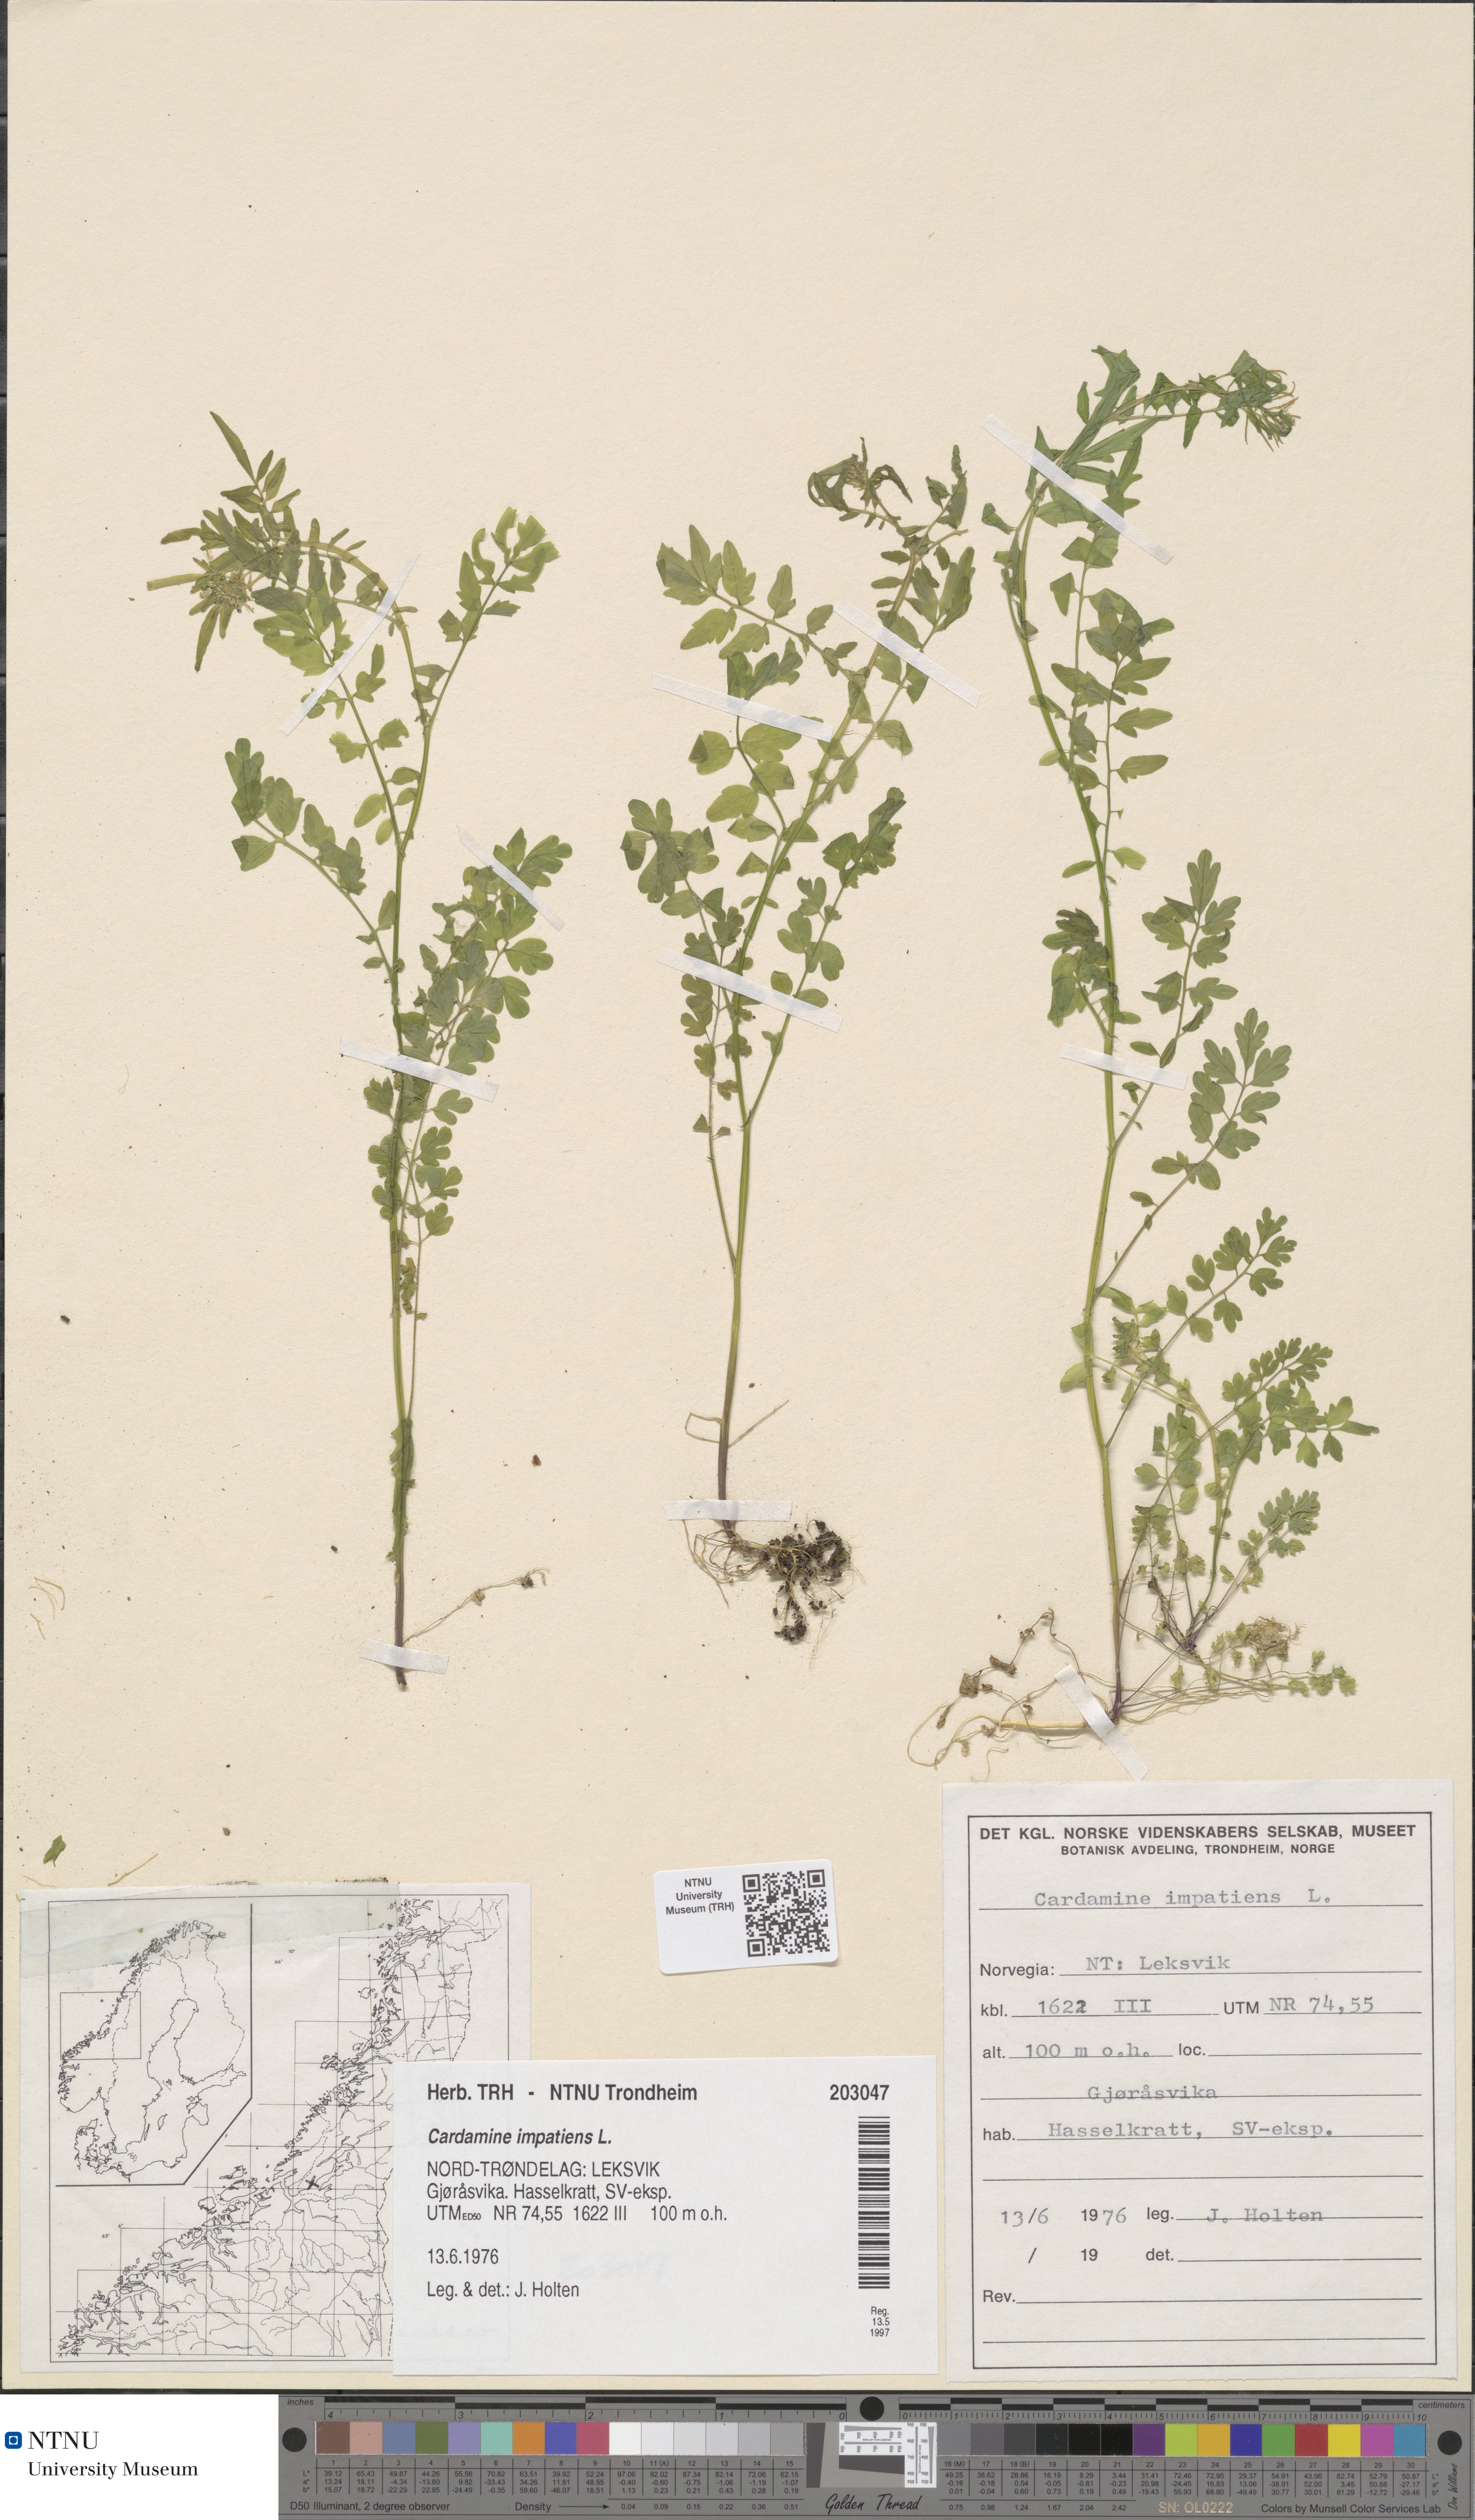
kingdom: Plantae
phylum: Tracheophyta
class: Magnoliopsida
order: Brassicales
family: Brassicaceae
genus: Cardamine
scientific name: Cardamine impatiens
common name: Narrow-leaved bitter-cress
